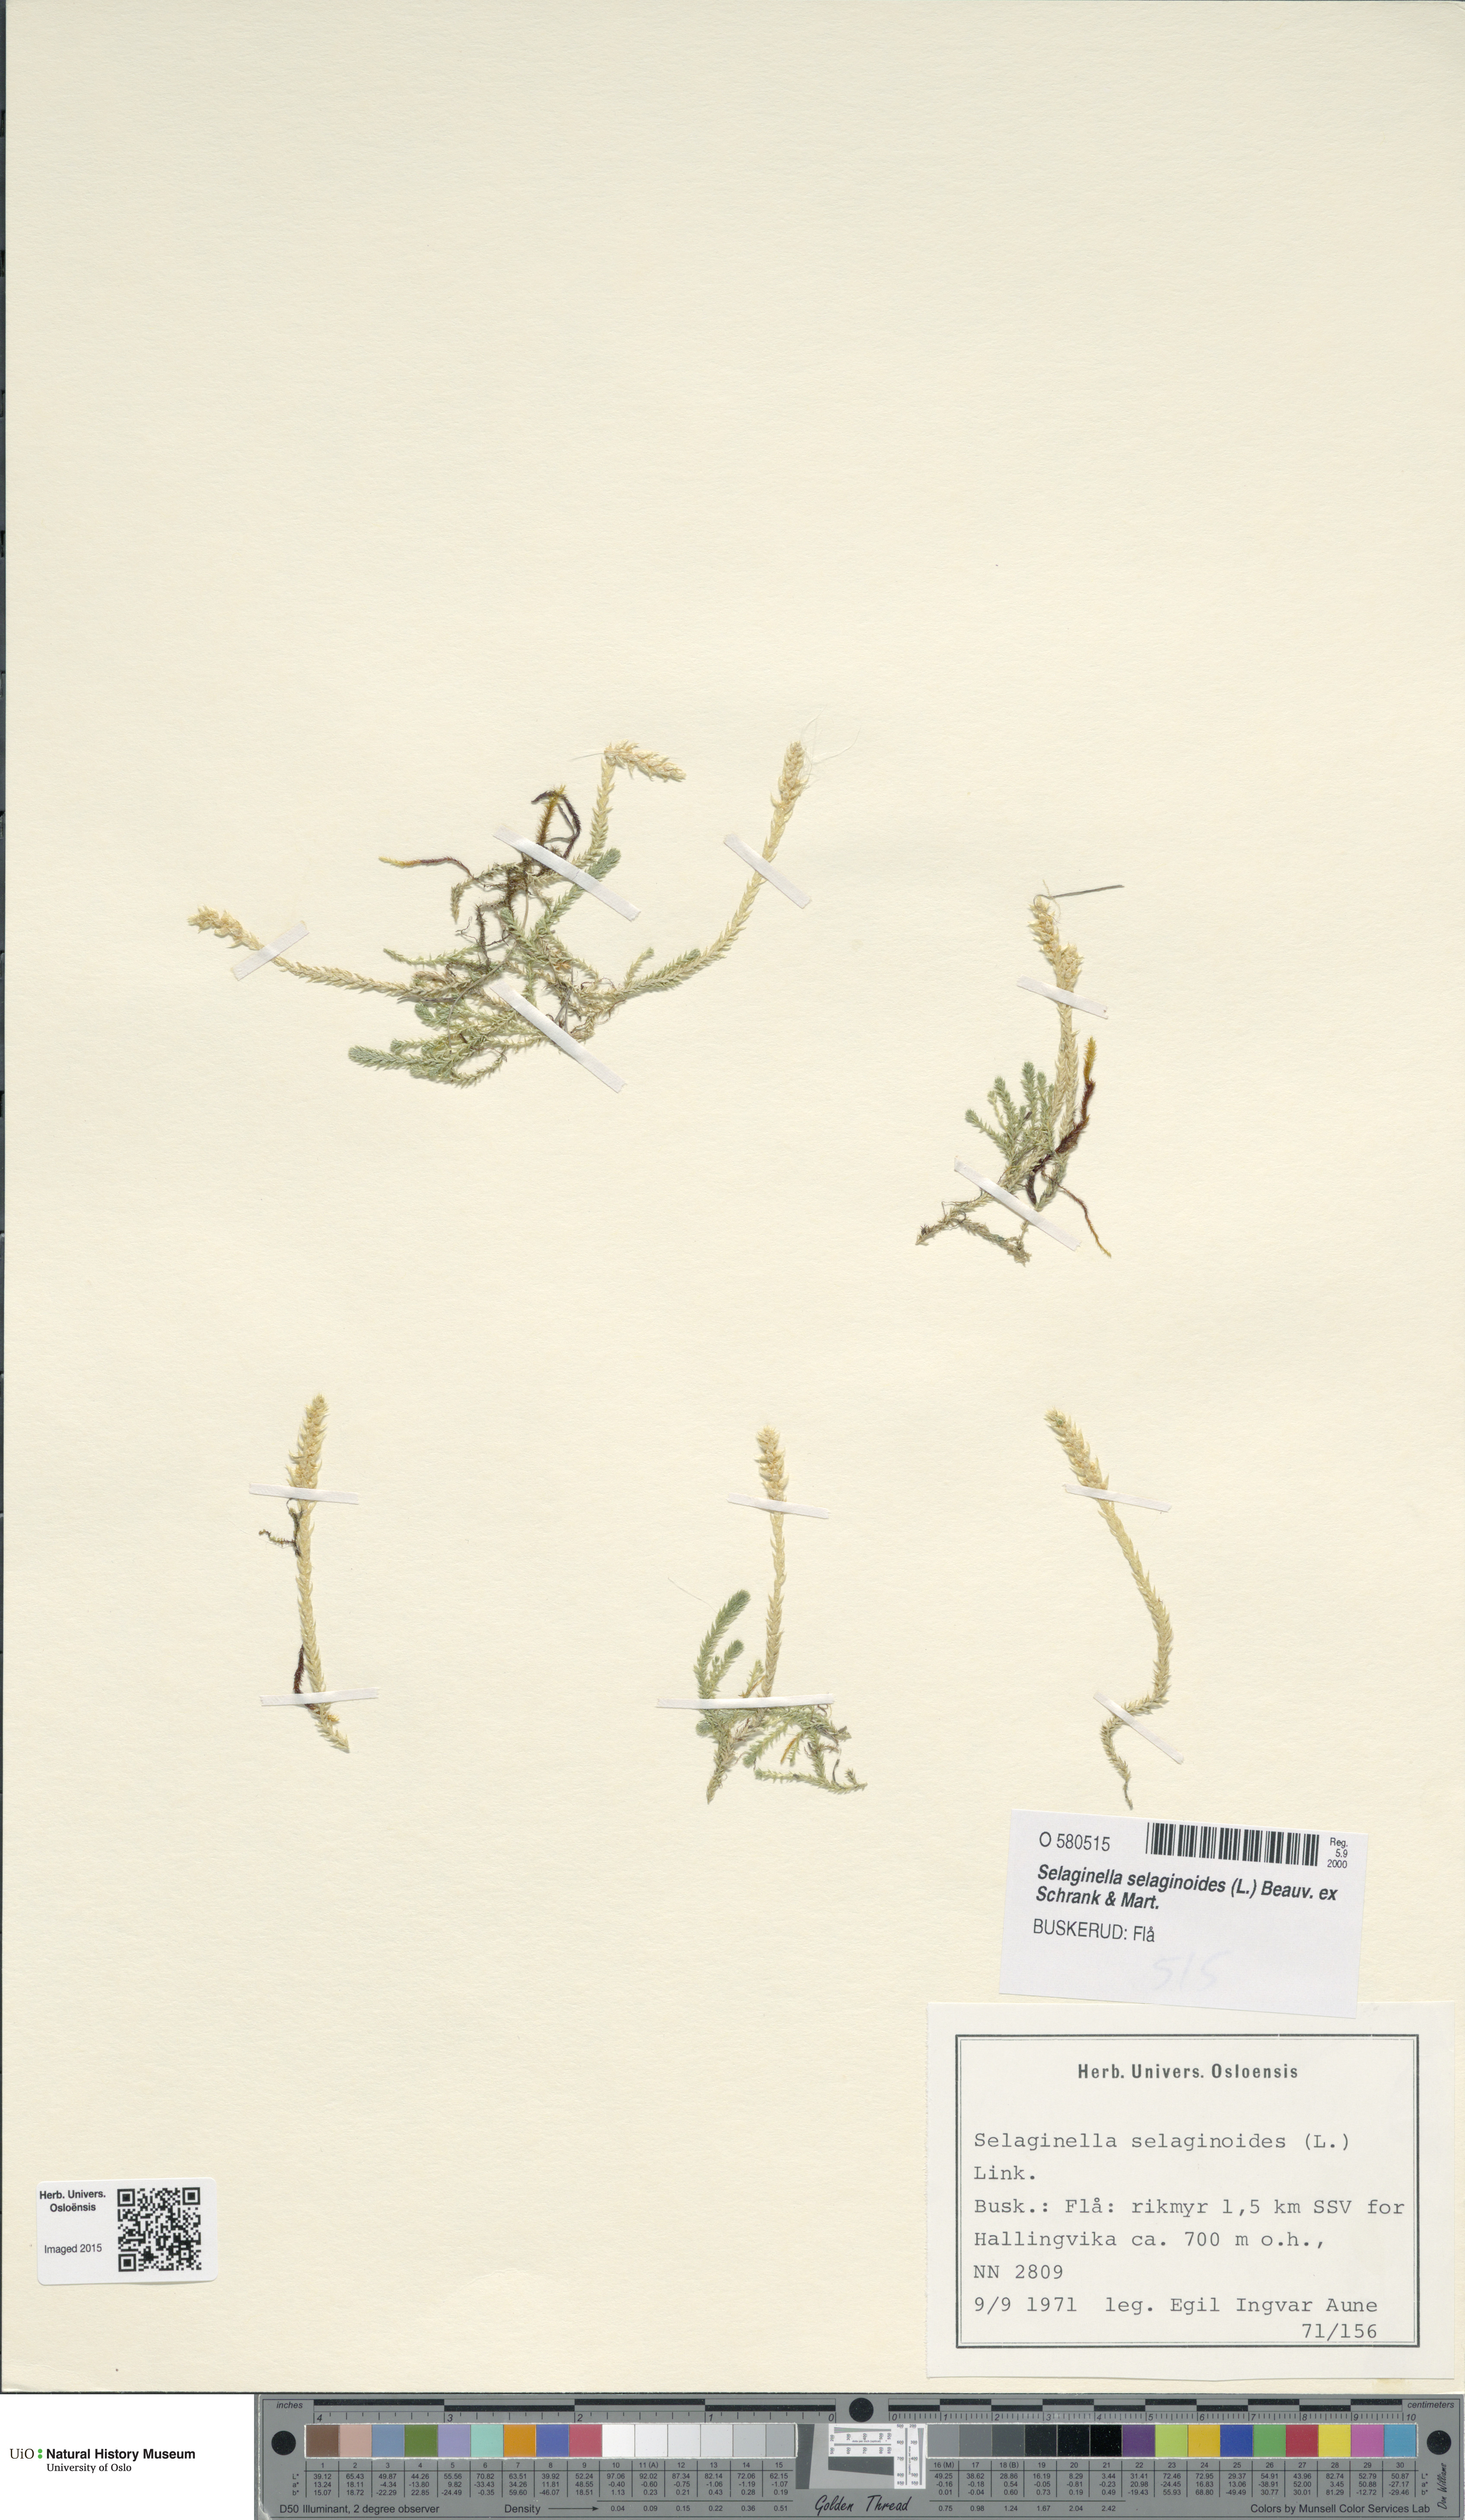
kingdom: Plantae
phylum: Tracheophyta
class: Lycopodiopsida
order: Selaginellales
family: Selaginellaceae
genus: Selaginella
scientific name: Selaginella selaginoides
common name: Prickly mountain-moss
